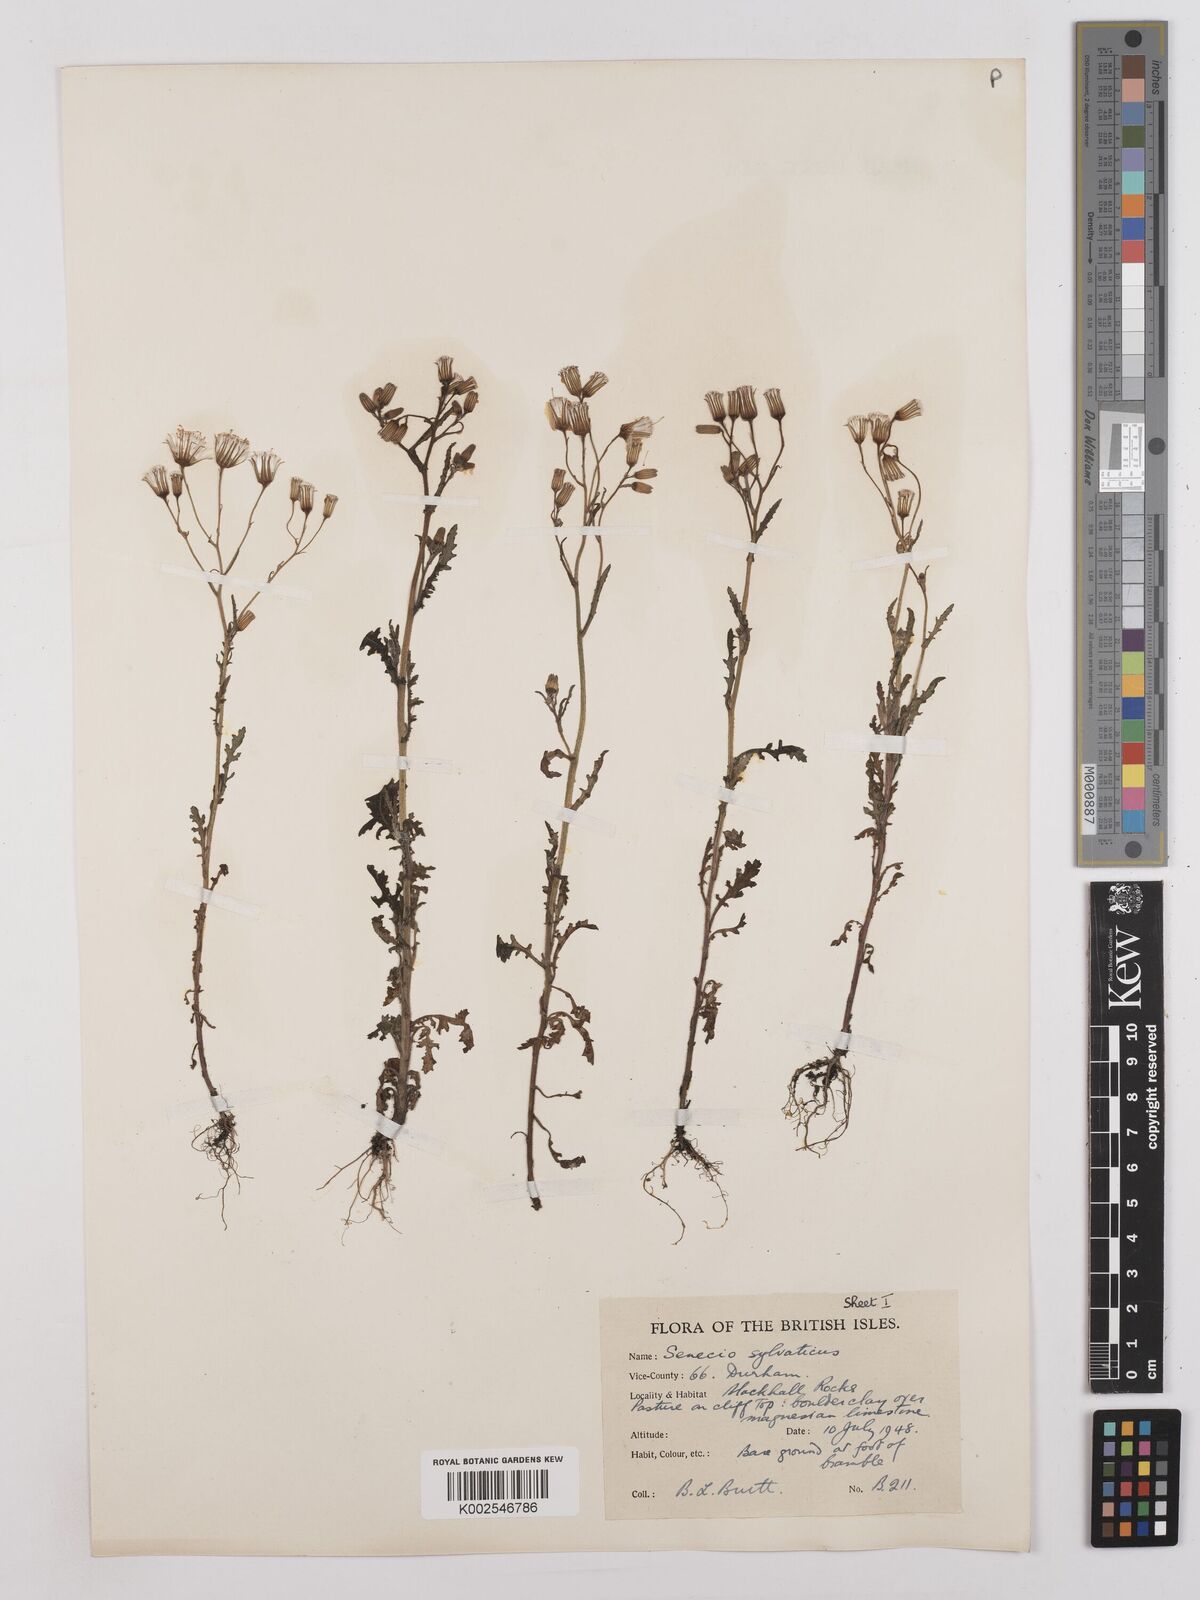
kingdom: Plantae
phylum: Tracheophyta
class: Magnoliopsida
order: Asterales
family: Asteraceae
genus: Senecio
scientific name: Senecio sylvaticus
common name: Woodland ragwort
